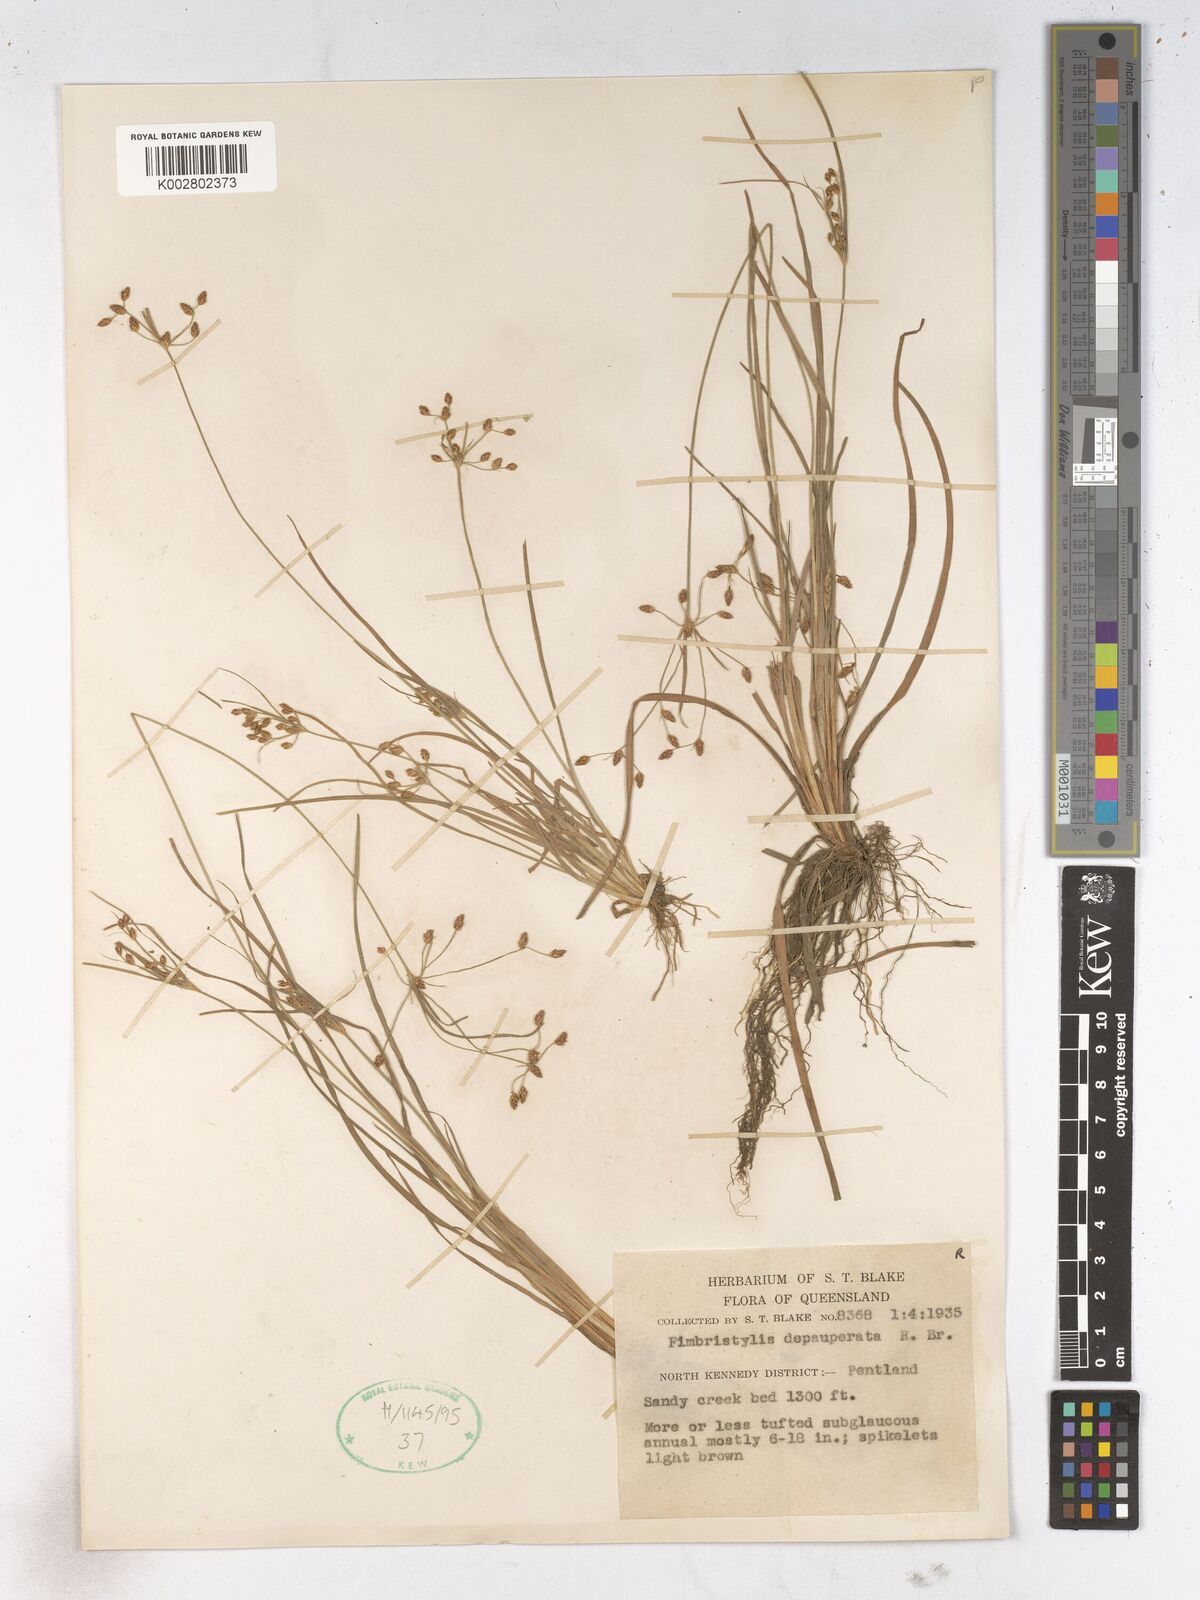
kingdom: Plantae
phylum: Tracheophyta
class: Liliopsida
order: Poales
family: Cyperaceae
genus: Fimbristylis
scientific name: Fimbristylis dichotoma
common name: Forked fimbry
